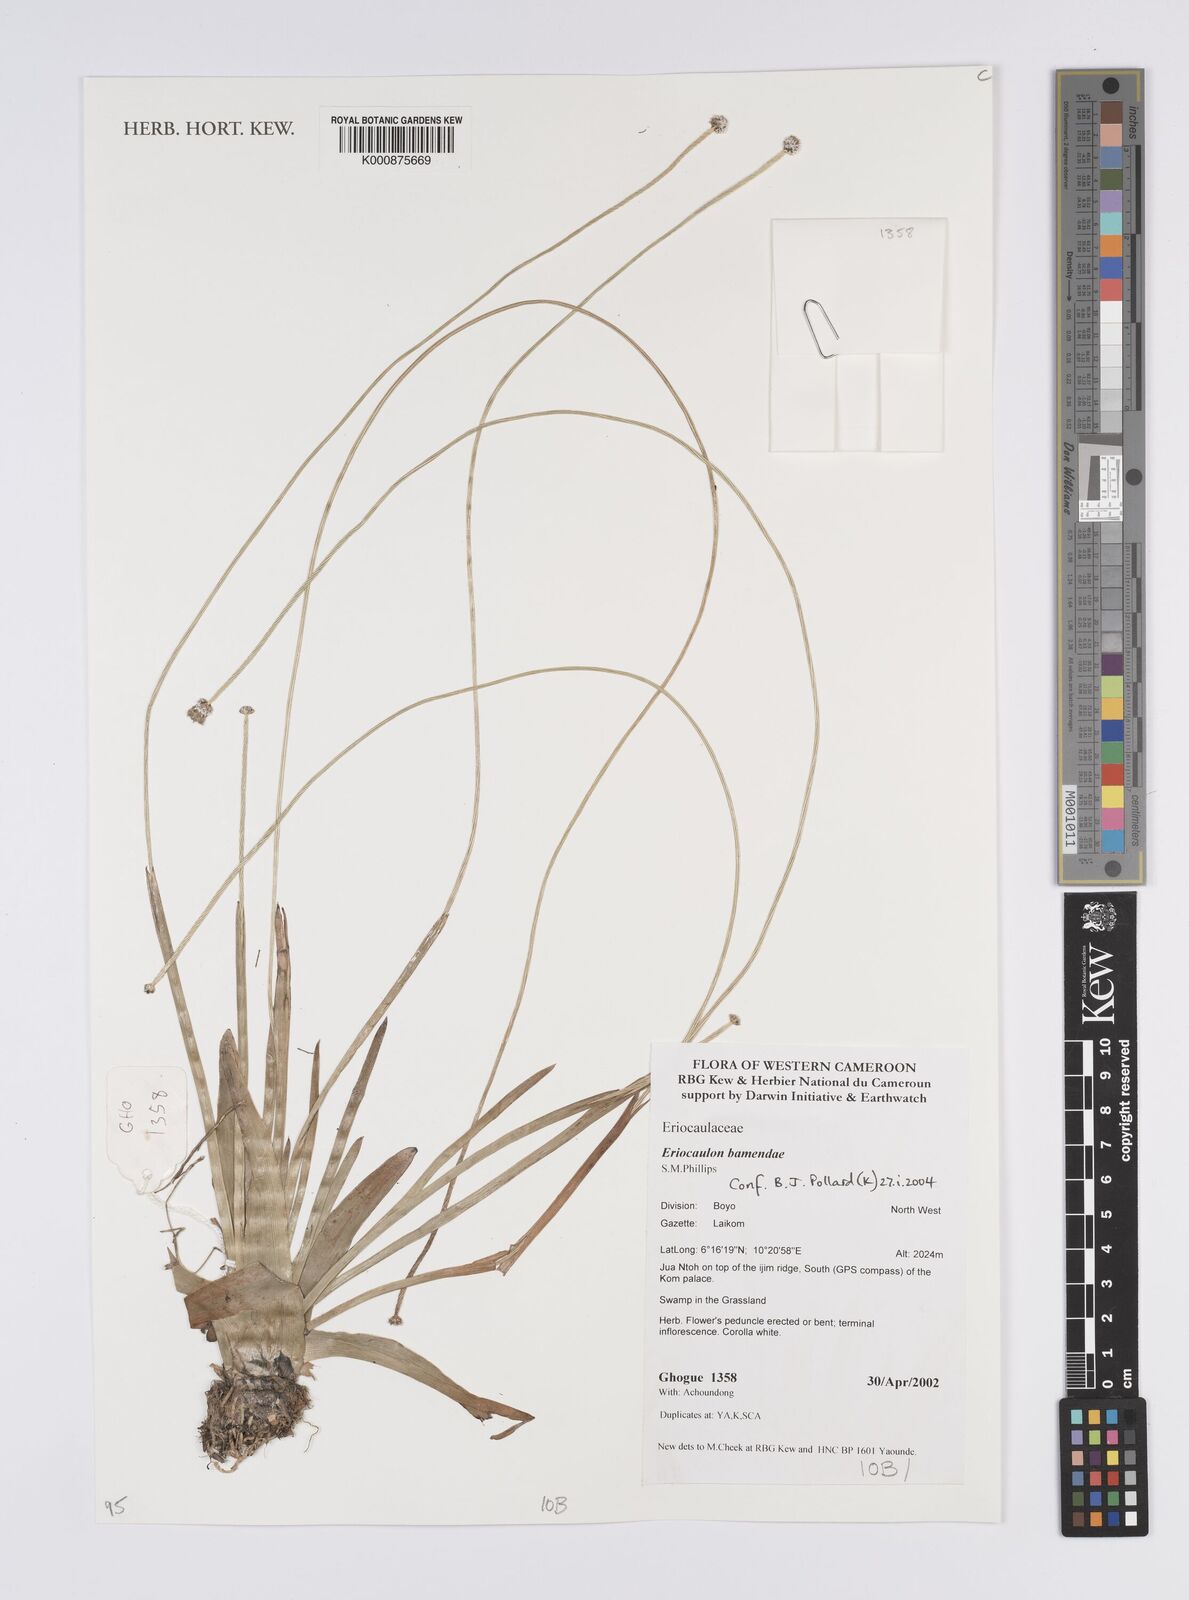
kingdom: Plantae
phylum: Tracheophyta
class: Liliopsida
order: Poales
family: Eriocaulaceae
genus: Eriocaulon
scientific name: Eriocaulon bamendae
